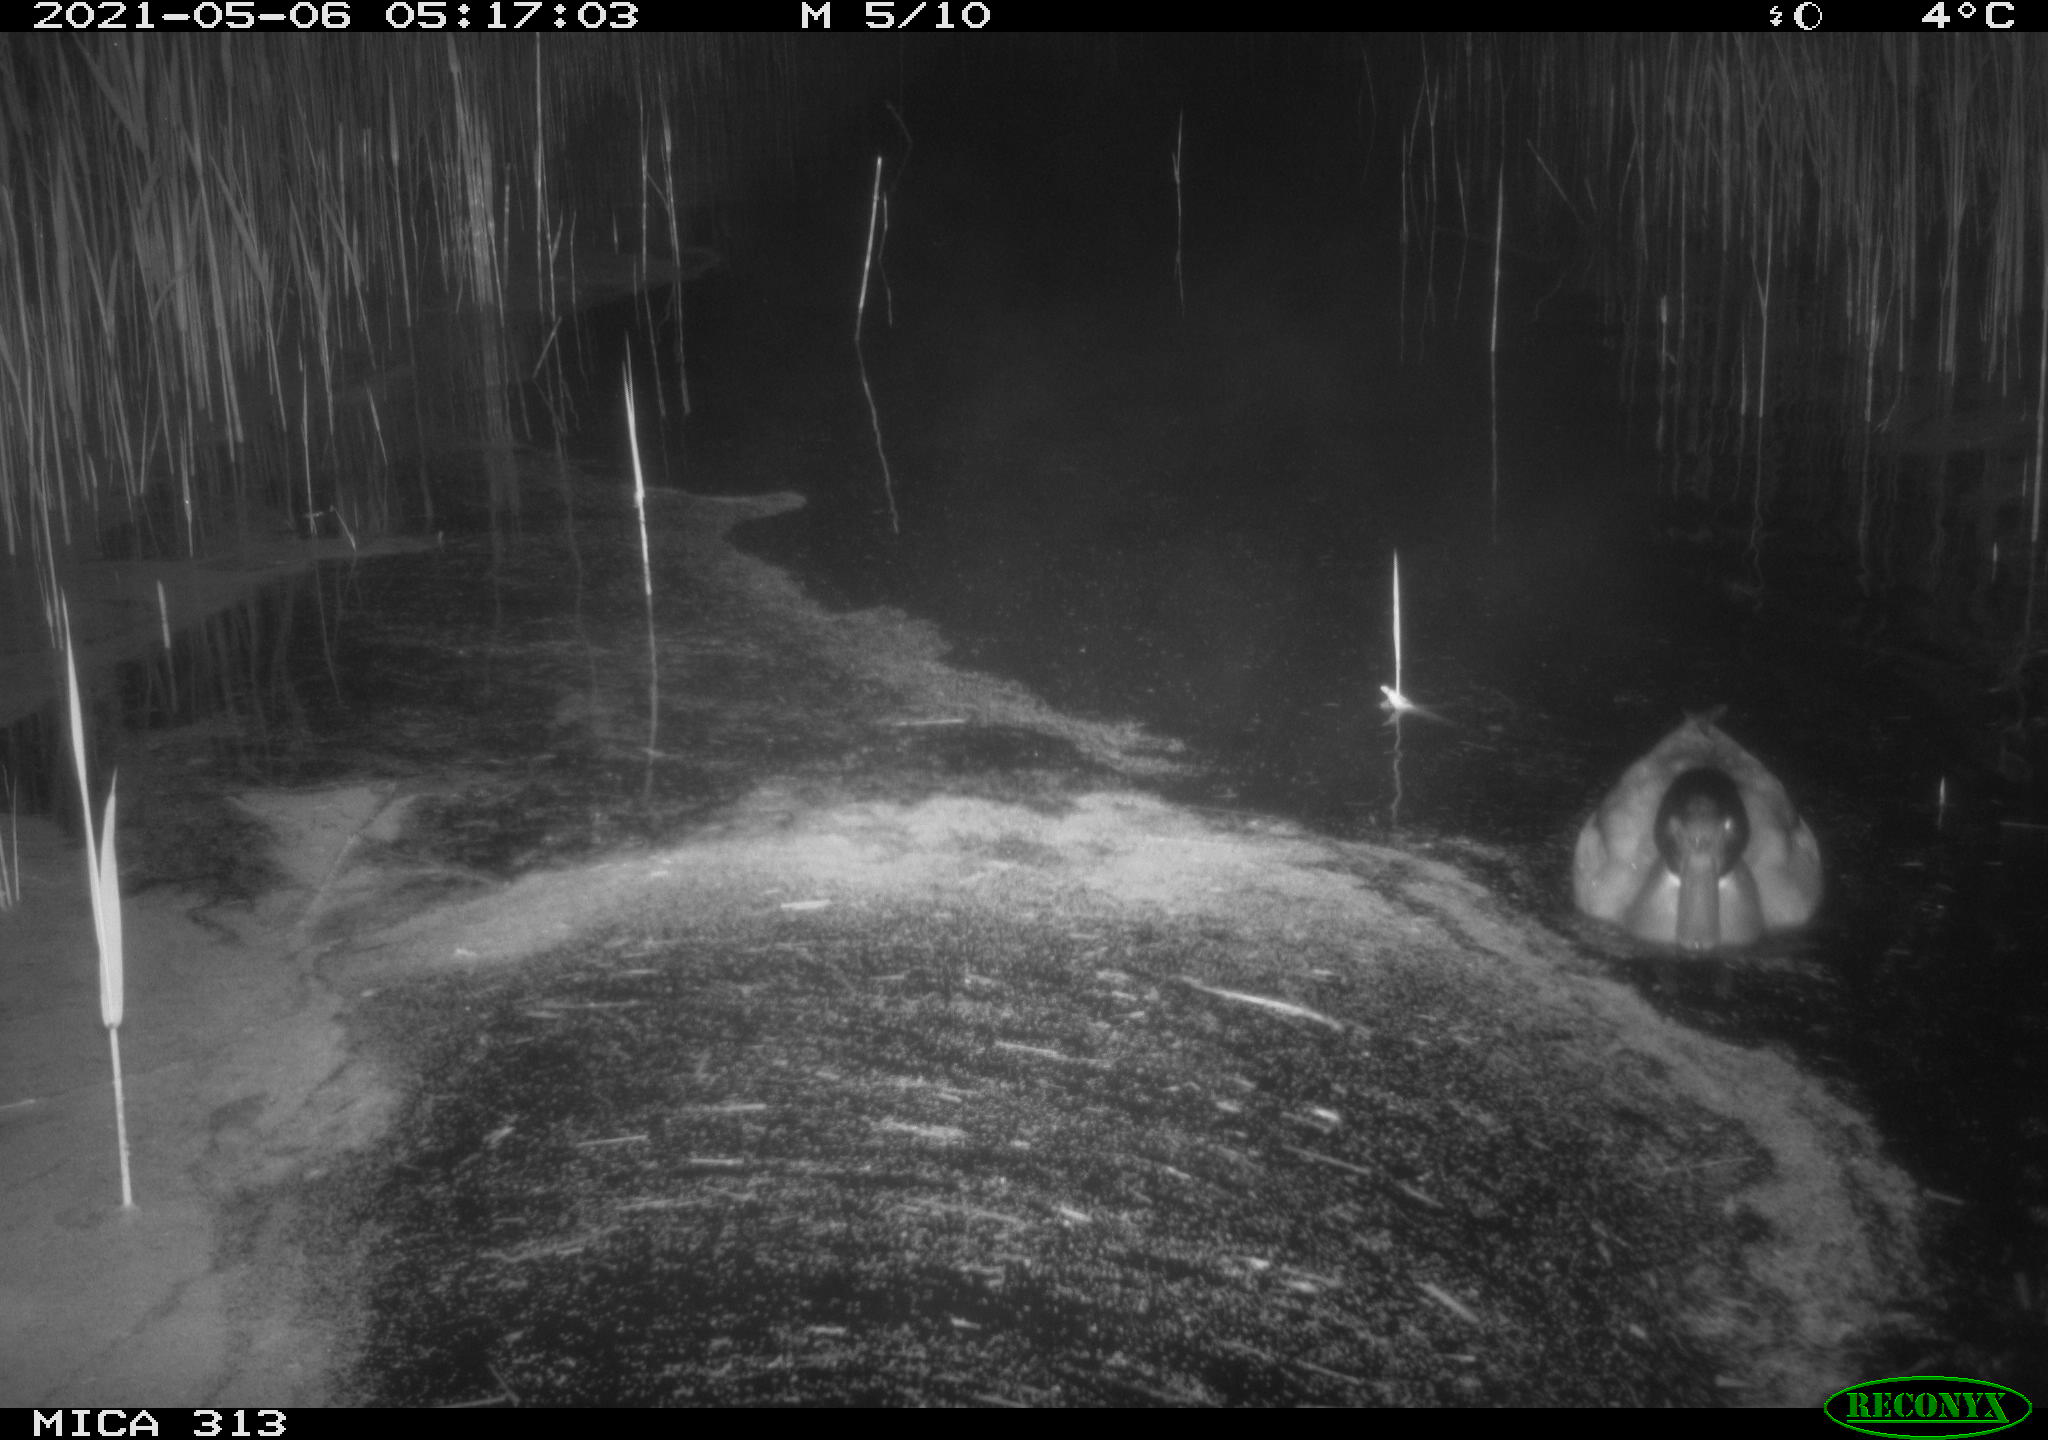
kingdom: Animalia
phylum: Chordata
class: Aves
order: Anseriformes
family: Anatidae
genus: Anas
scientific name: Anas platyrhynchos
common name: Mallard
